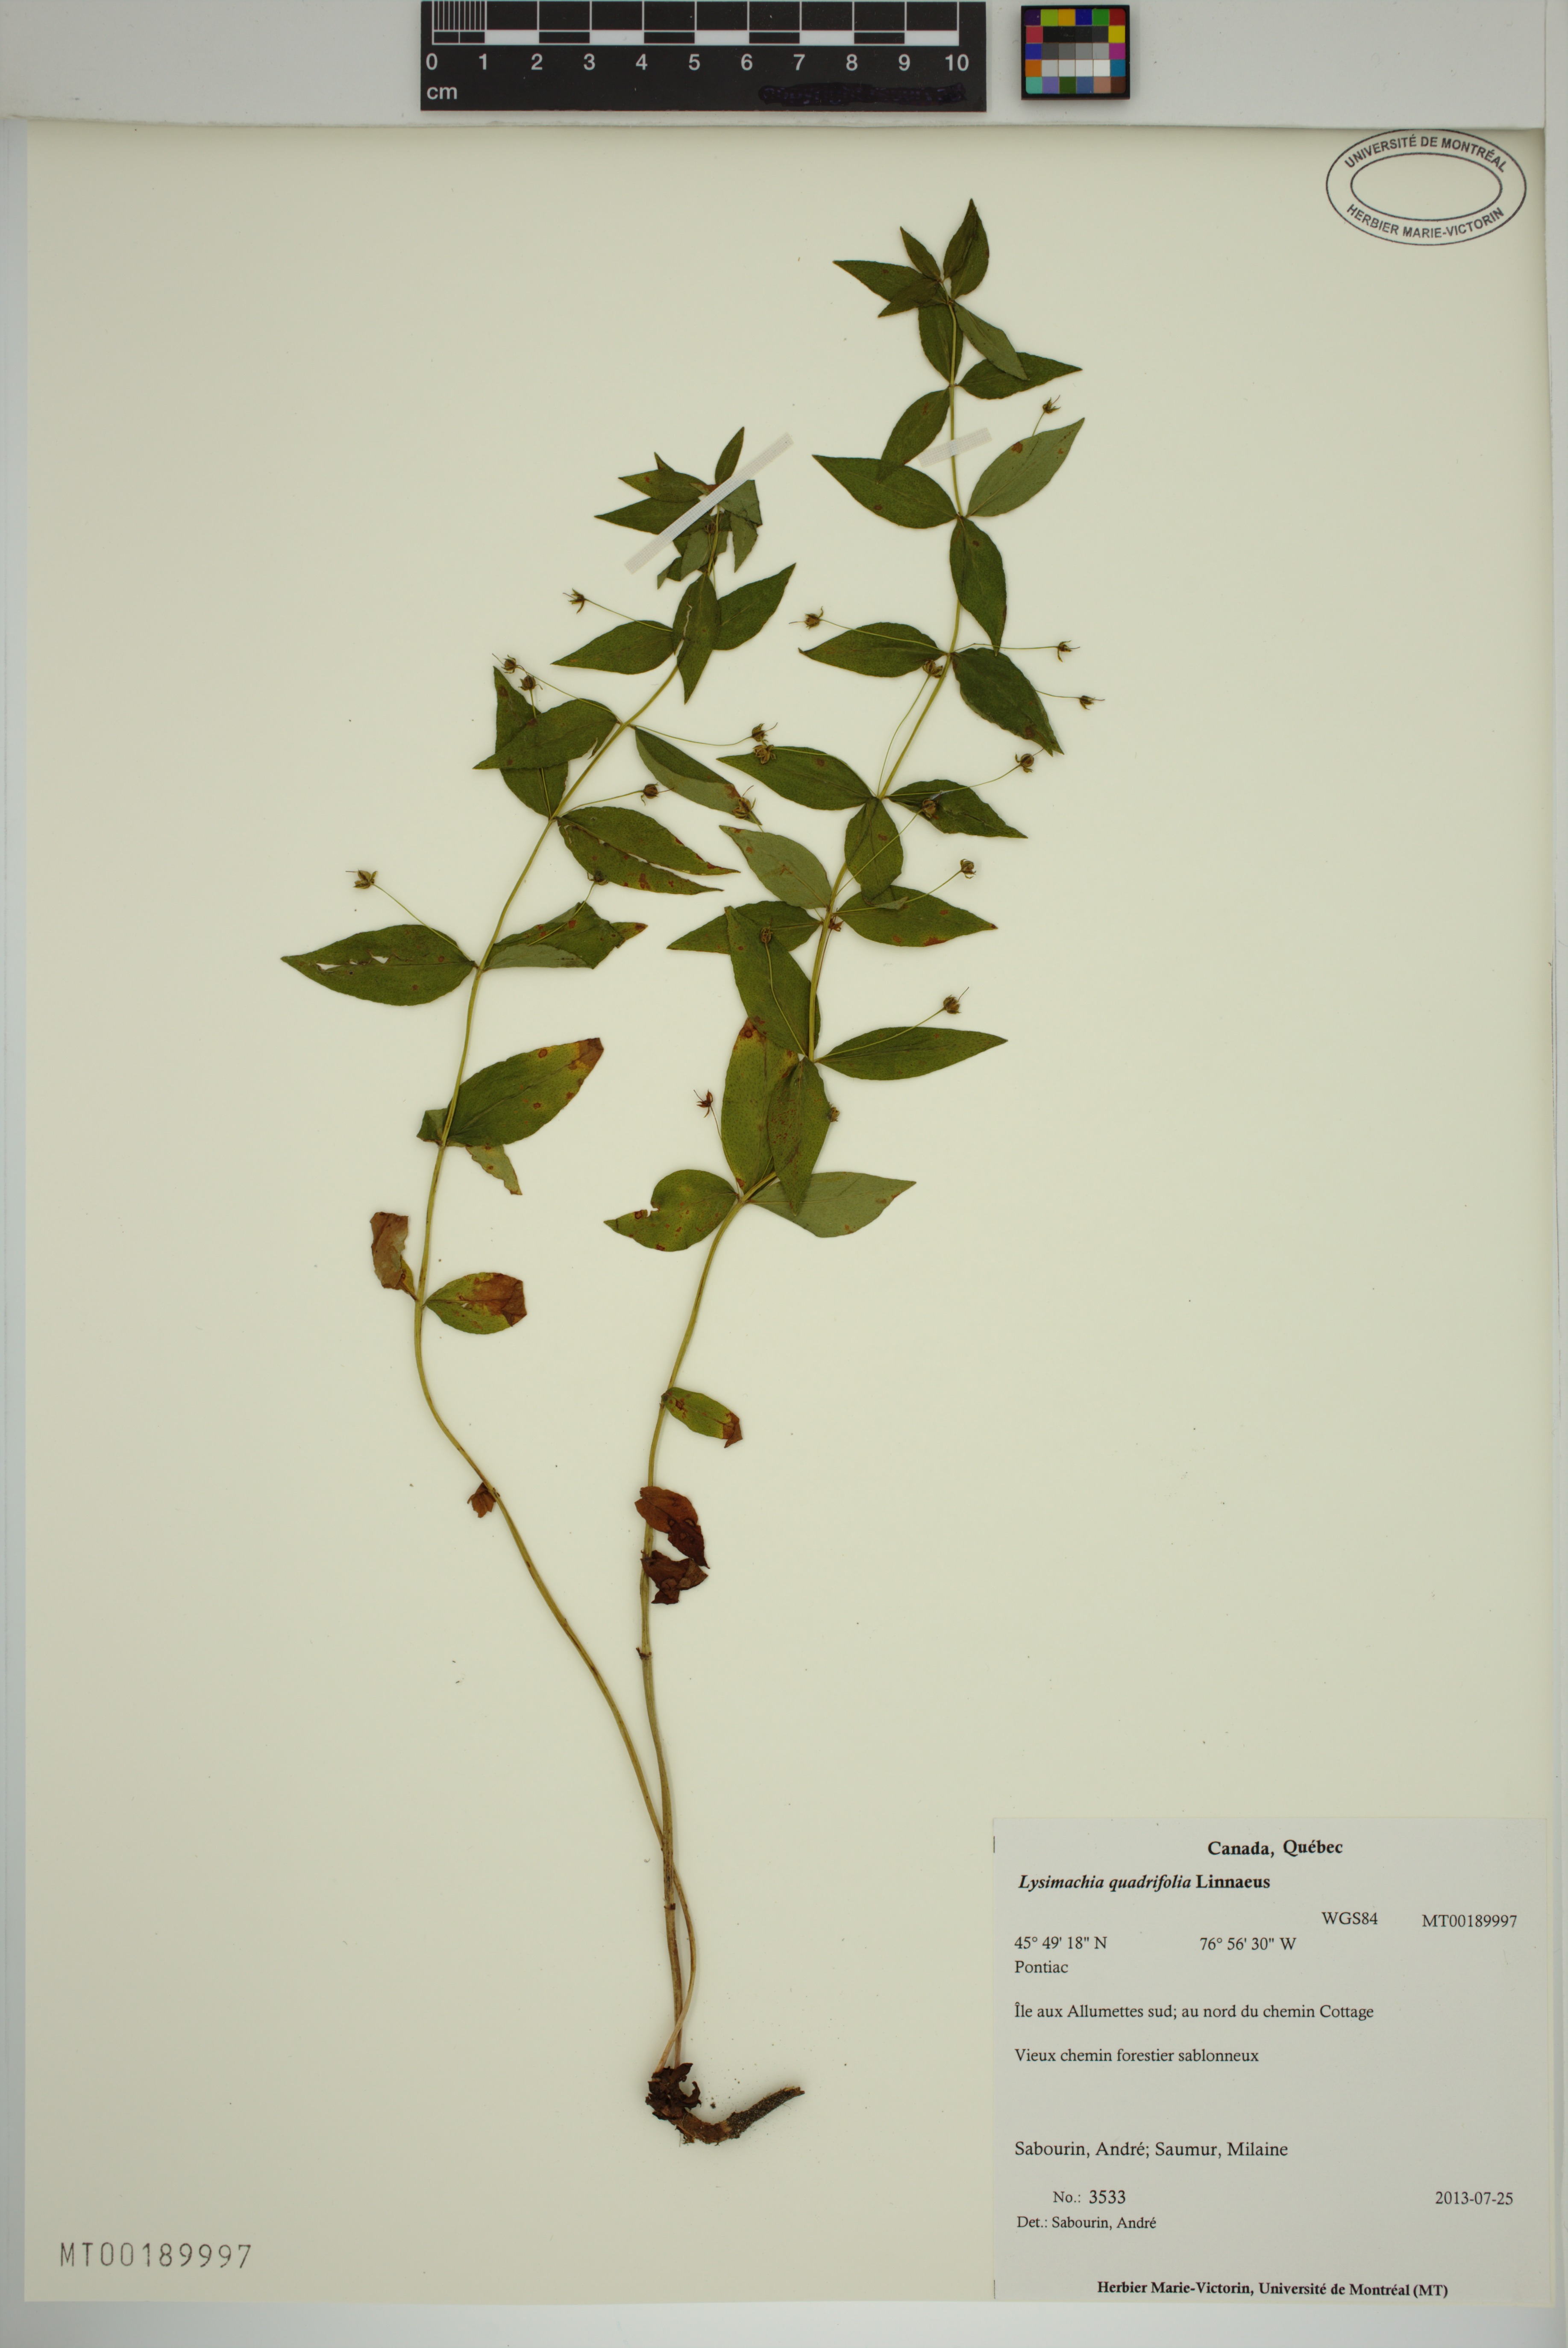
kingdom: Plantae
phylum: Tracheophyta
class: Magnoliopsida
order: Ericales
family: Primulaceae
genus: Lysimachia
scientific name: Lysimachia quadrifolia
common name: Whorled loosestrife
